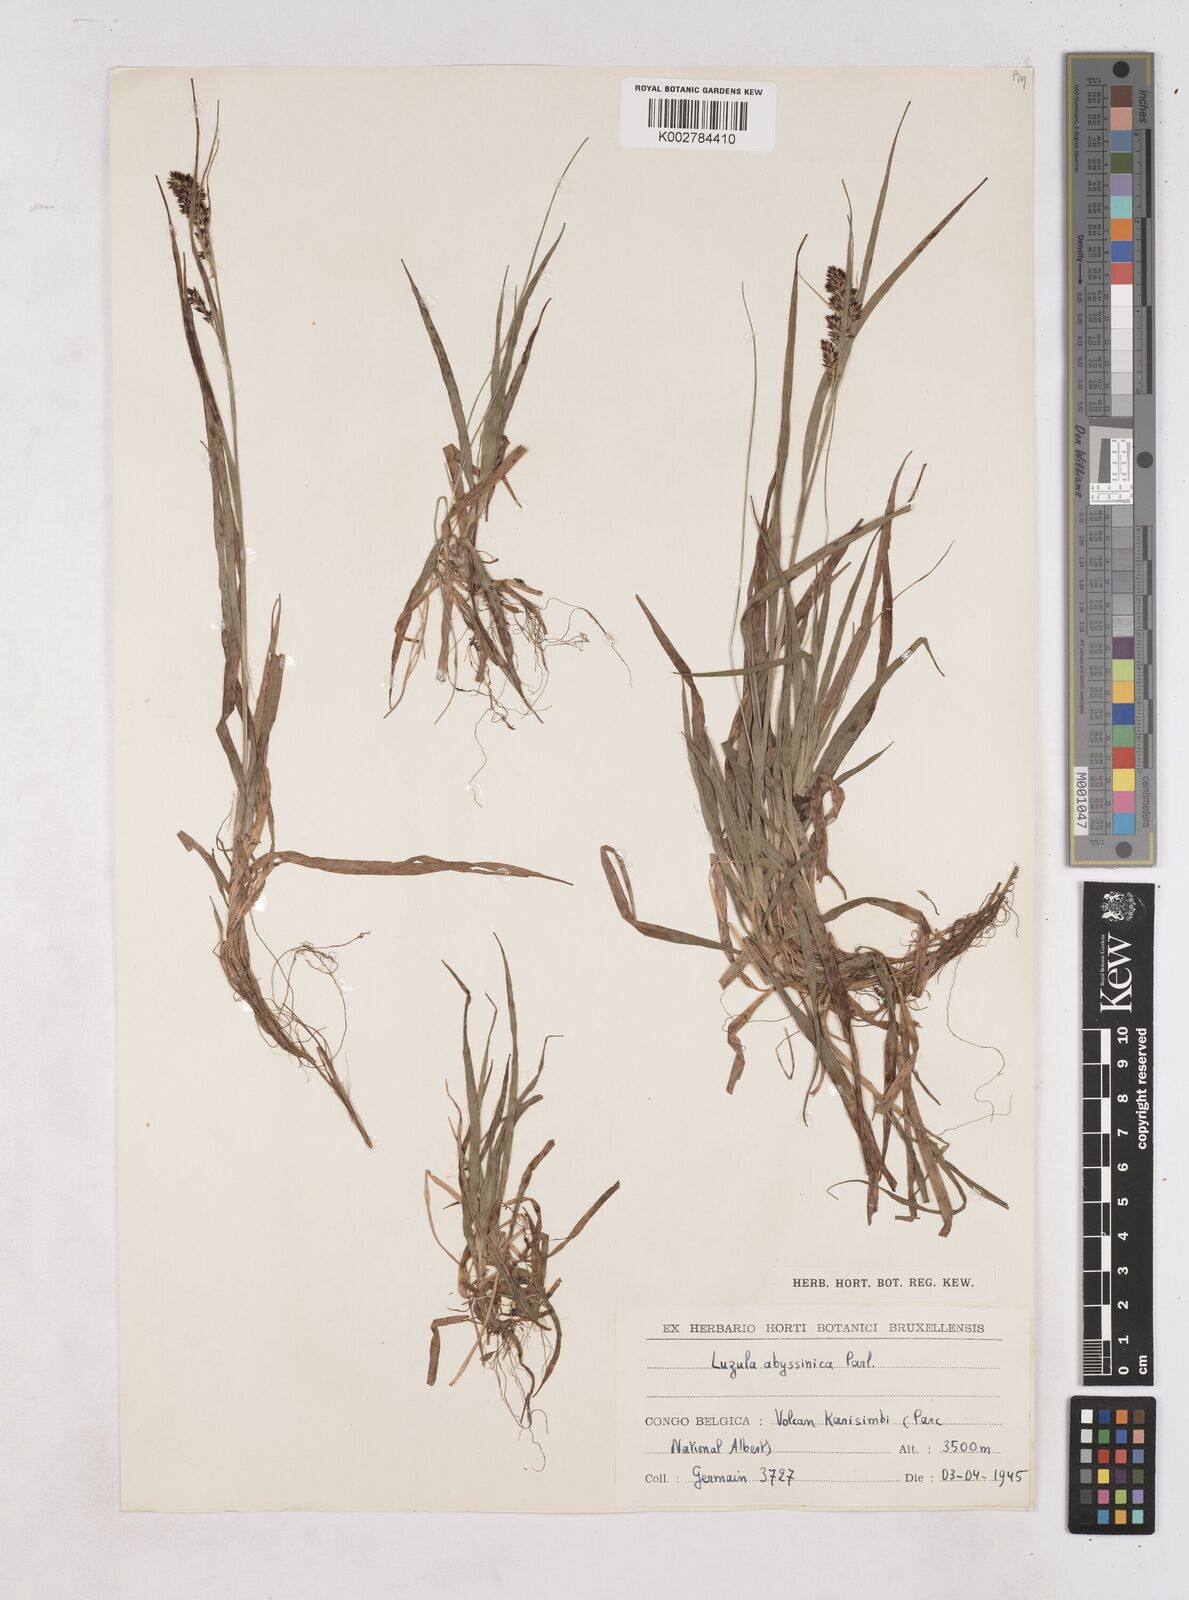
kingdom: Plantae
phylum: Tracheophyta
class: Liliopsida
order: Poales
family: Juncaceae
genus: Luzula
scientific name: Luzula abyssinica
